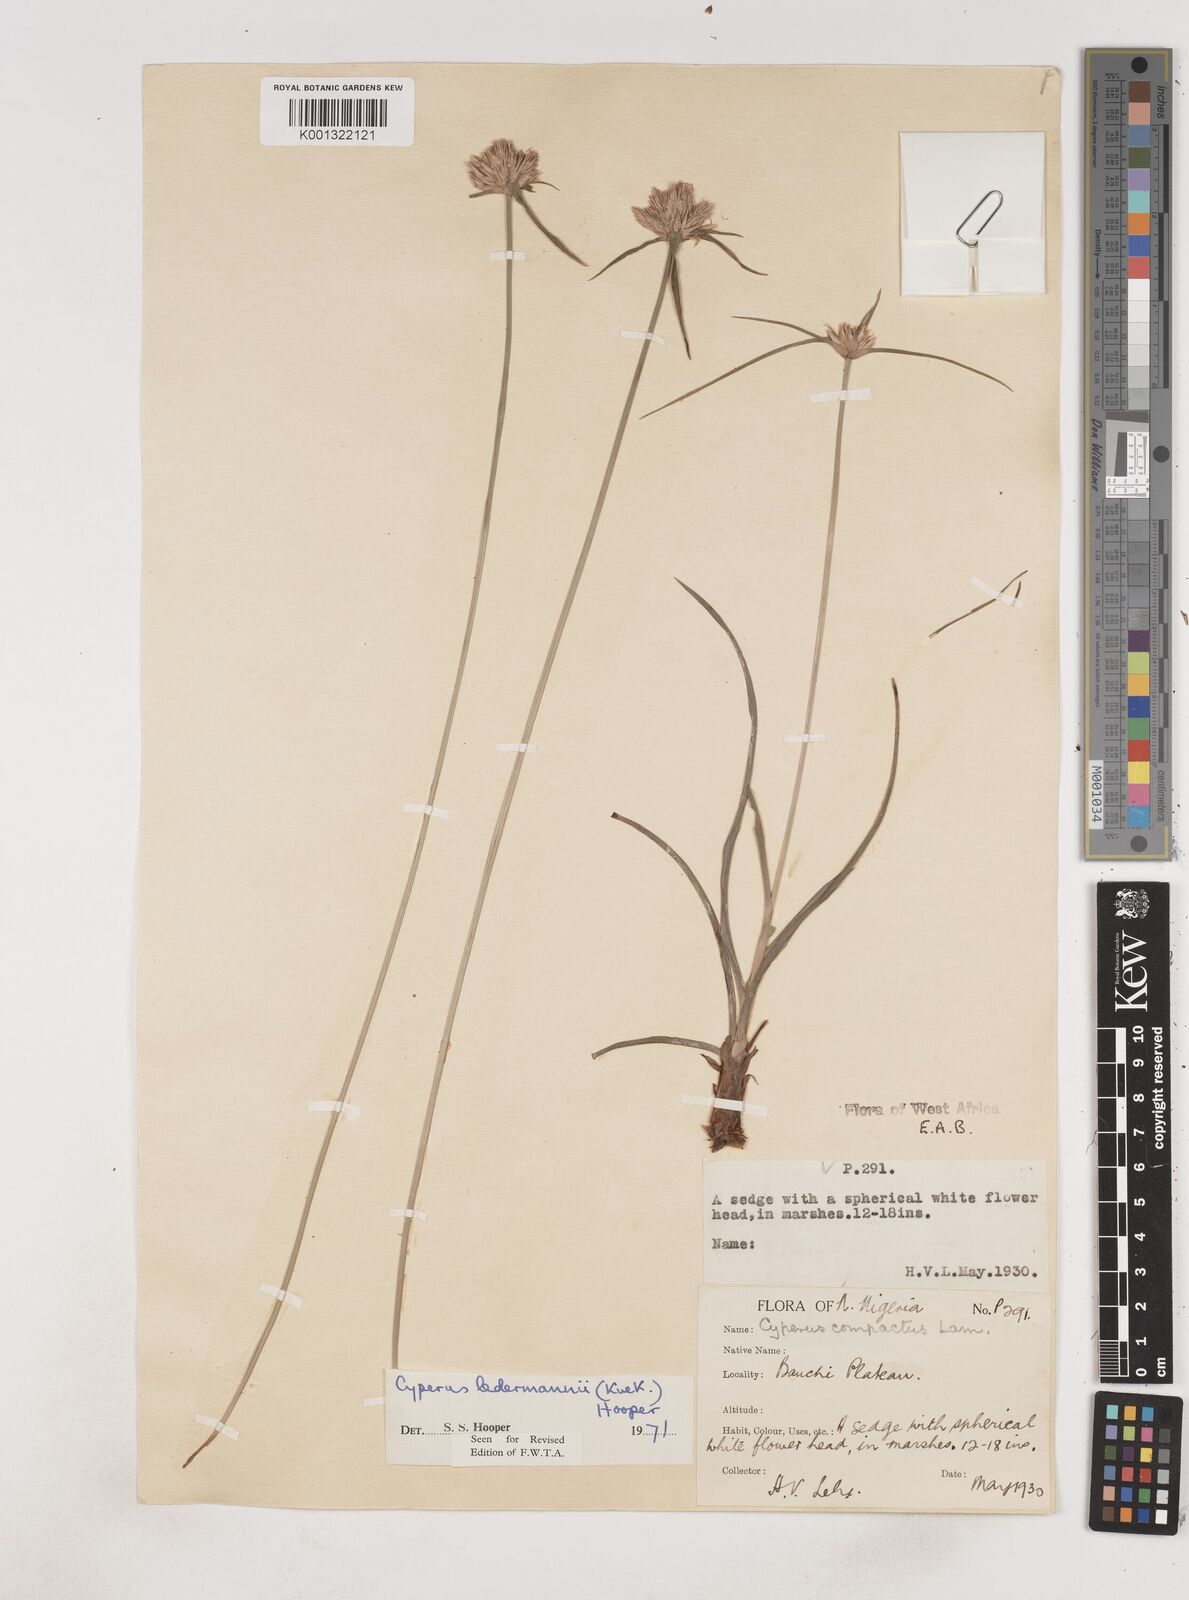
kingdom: Plantae
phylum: Tracheophyta
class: Liliopsida
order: Poales
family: Cyperaceae
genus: Cyperus
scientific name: Cyperus niveus
